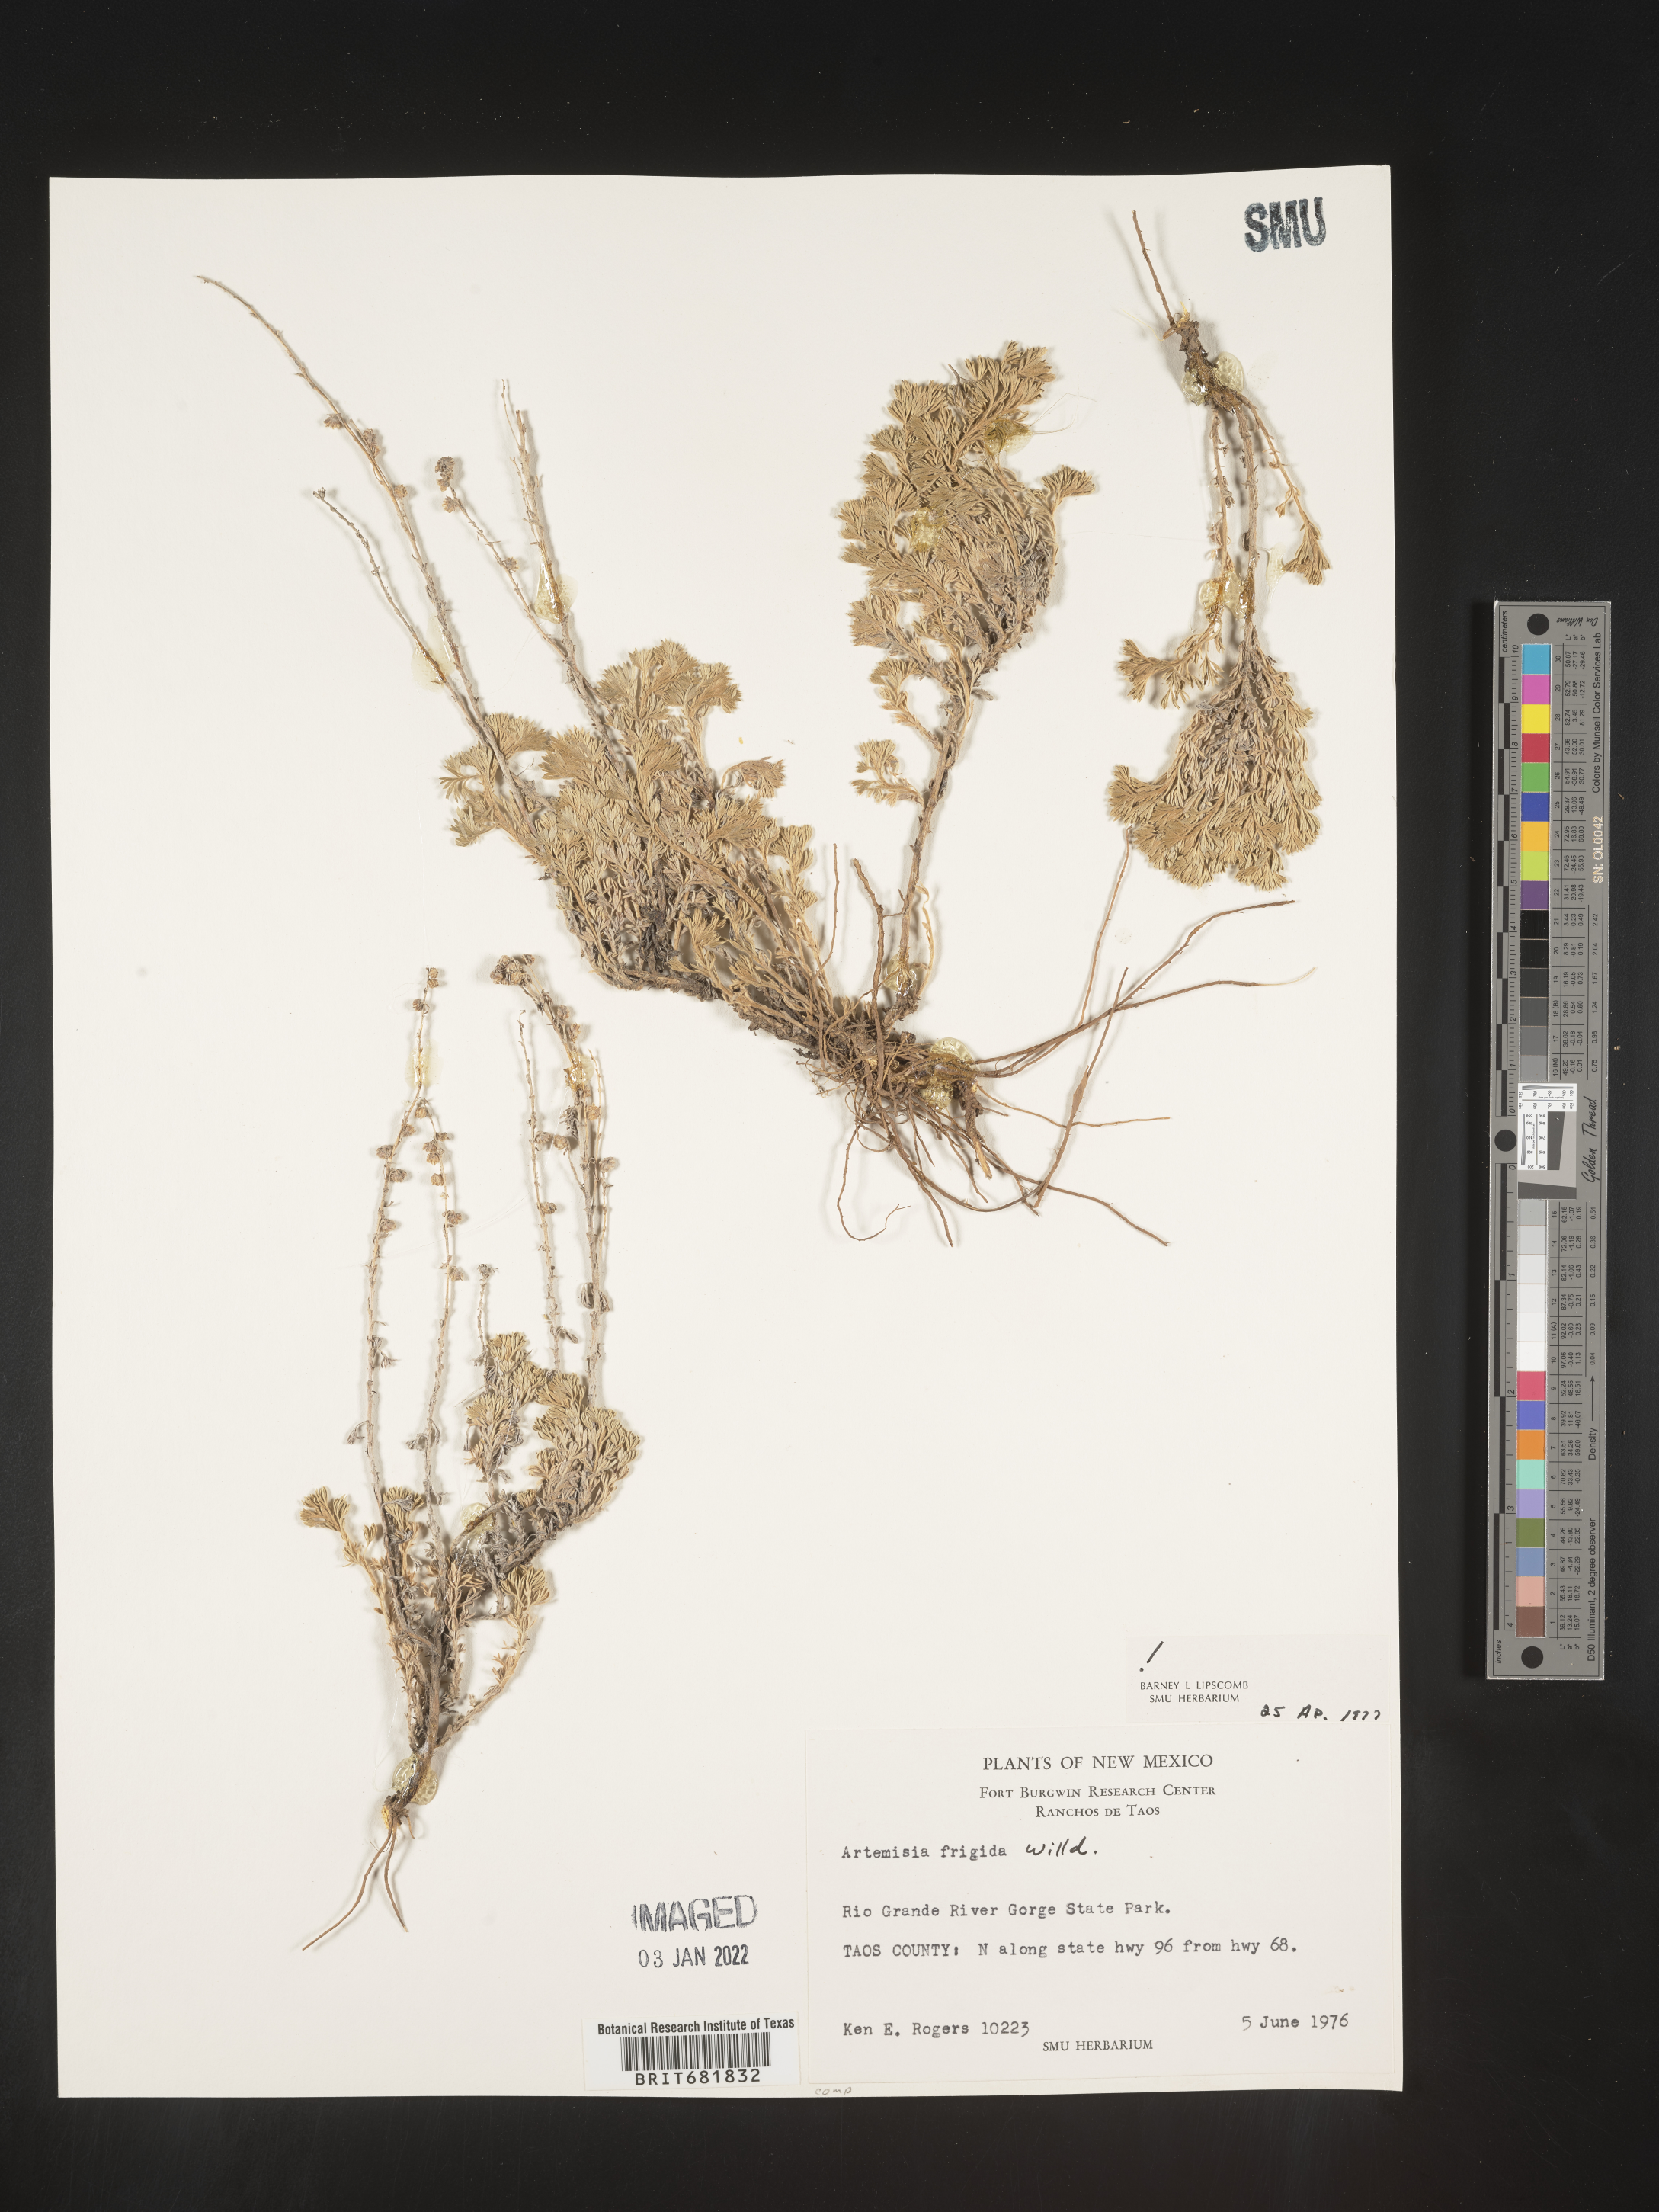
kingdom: Plantae
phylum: Tracheophyta
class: Magnoliopsida
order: Asterales
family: Asteraceae
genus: Artemisia
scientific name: Artemisia frigida
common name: Prairie sagewort
